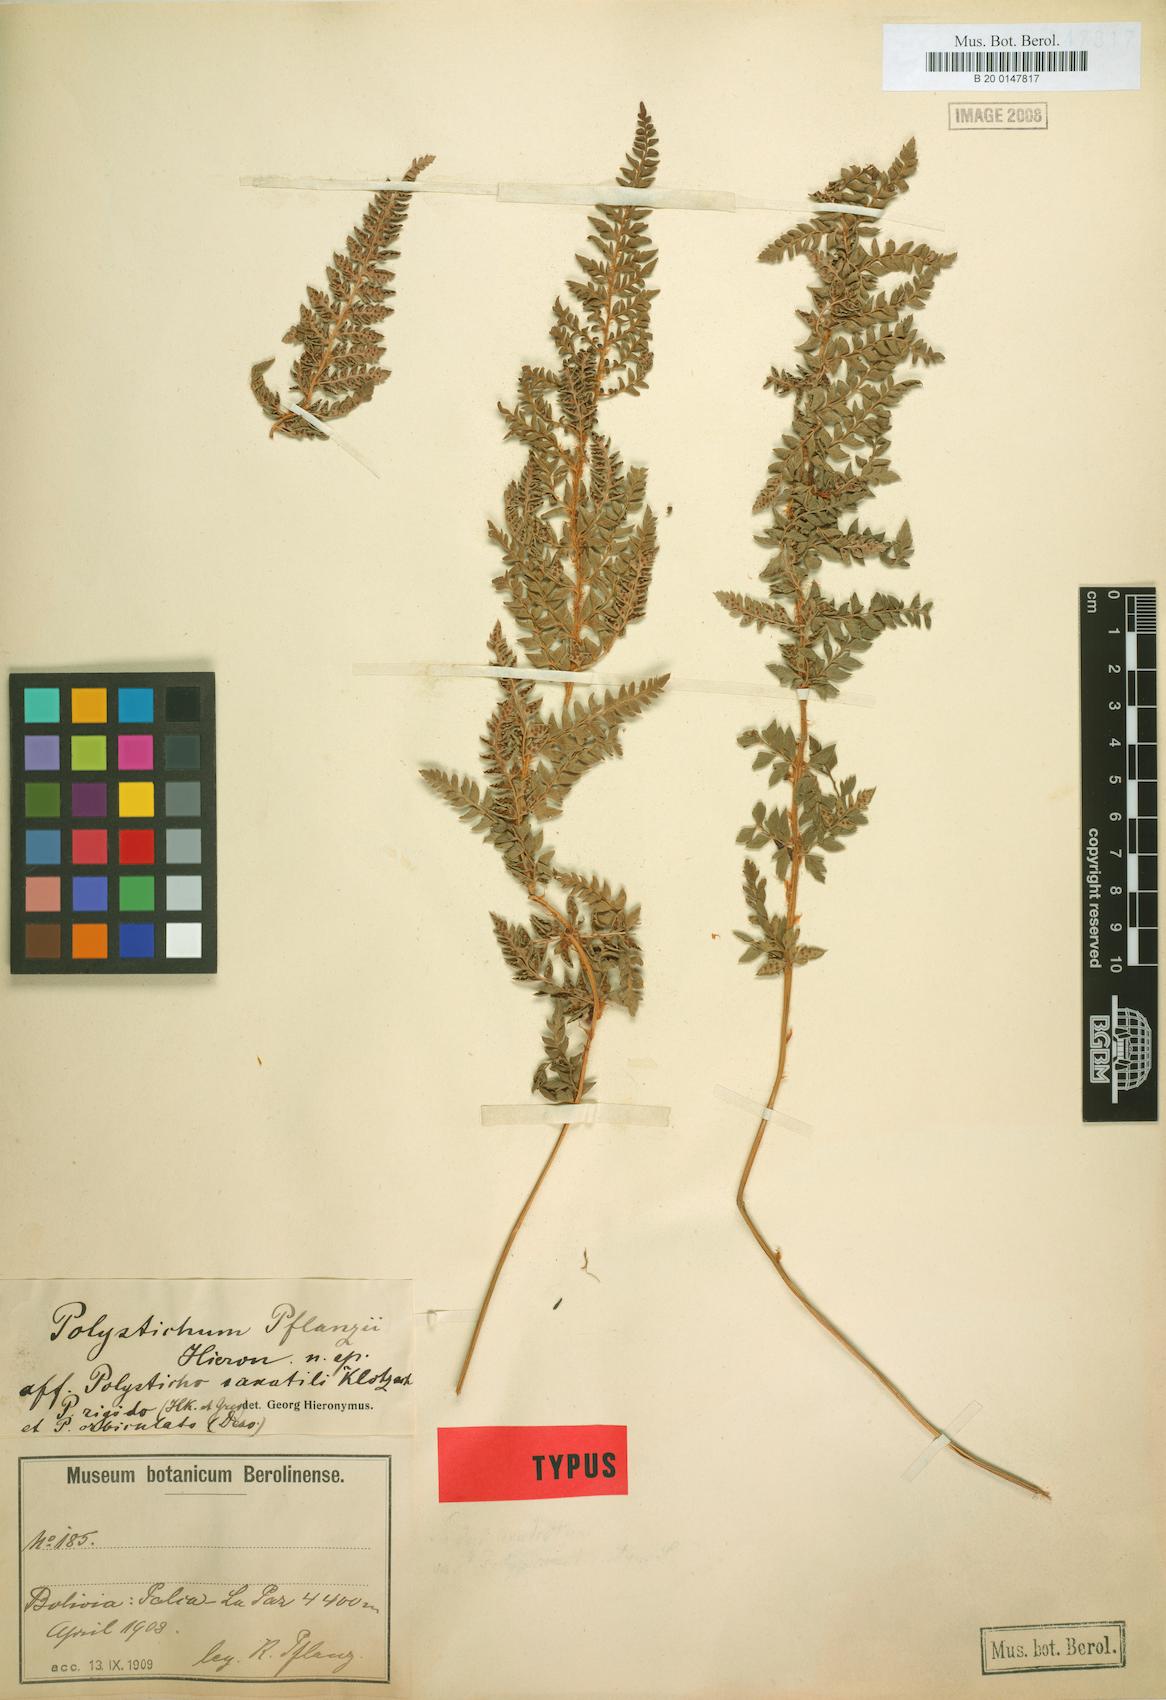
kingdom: Plantae
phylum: Tracheophyta
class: Polypodiopsida
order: Polypodiales
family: Dryopteridaceae
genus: Polystichum
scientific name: Polystichum cochleatum
